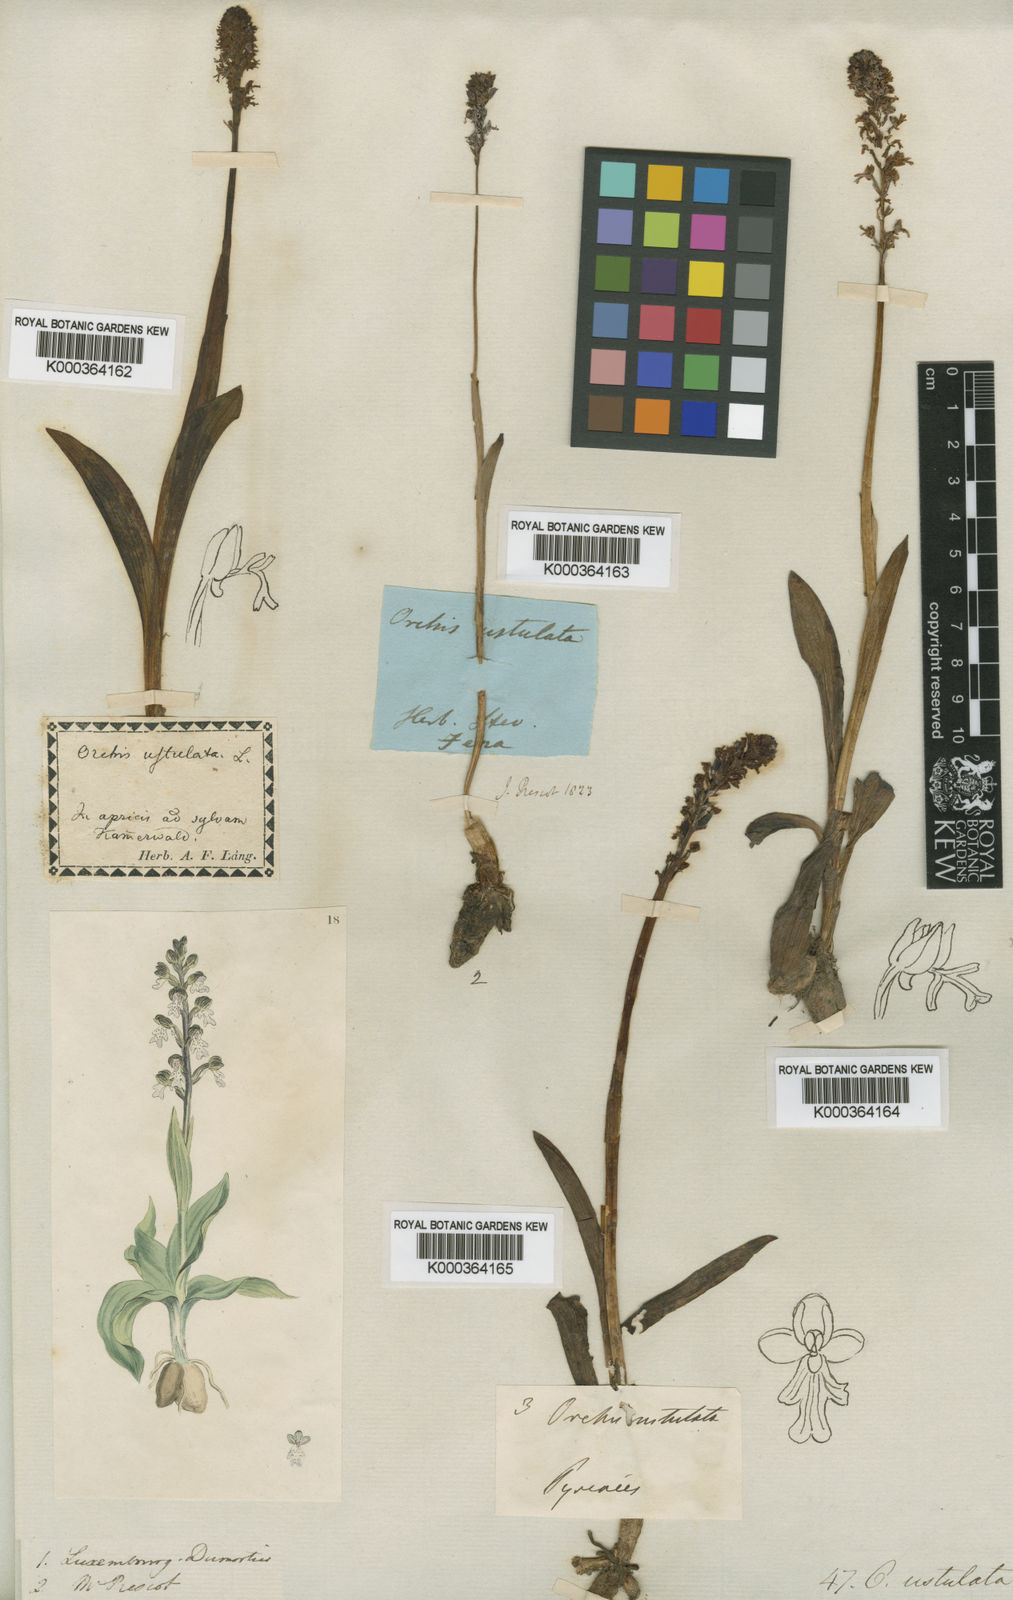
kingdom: Plantae
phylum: Tracheophyta
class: Liliopsida
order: Asparagales
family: Orchidaceae
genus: Neotinea
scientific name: Neotinea ustulata
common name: Burnt orchid
